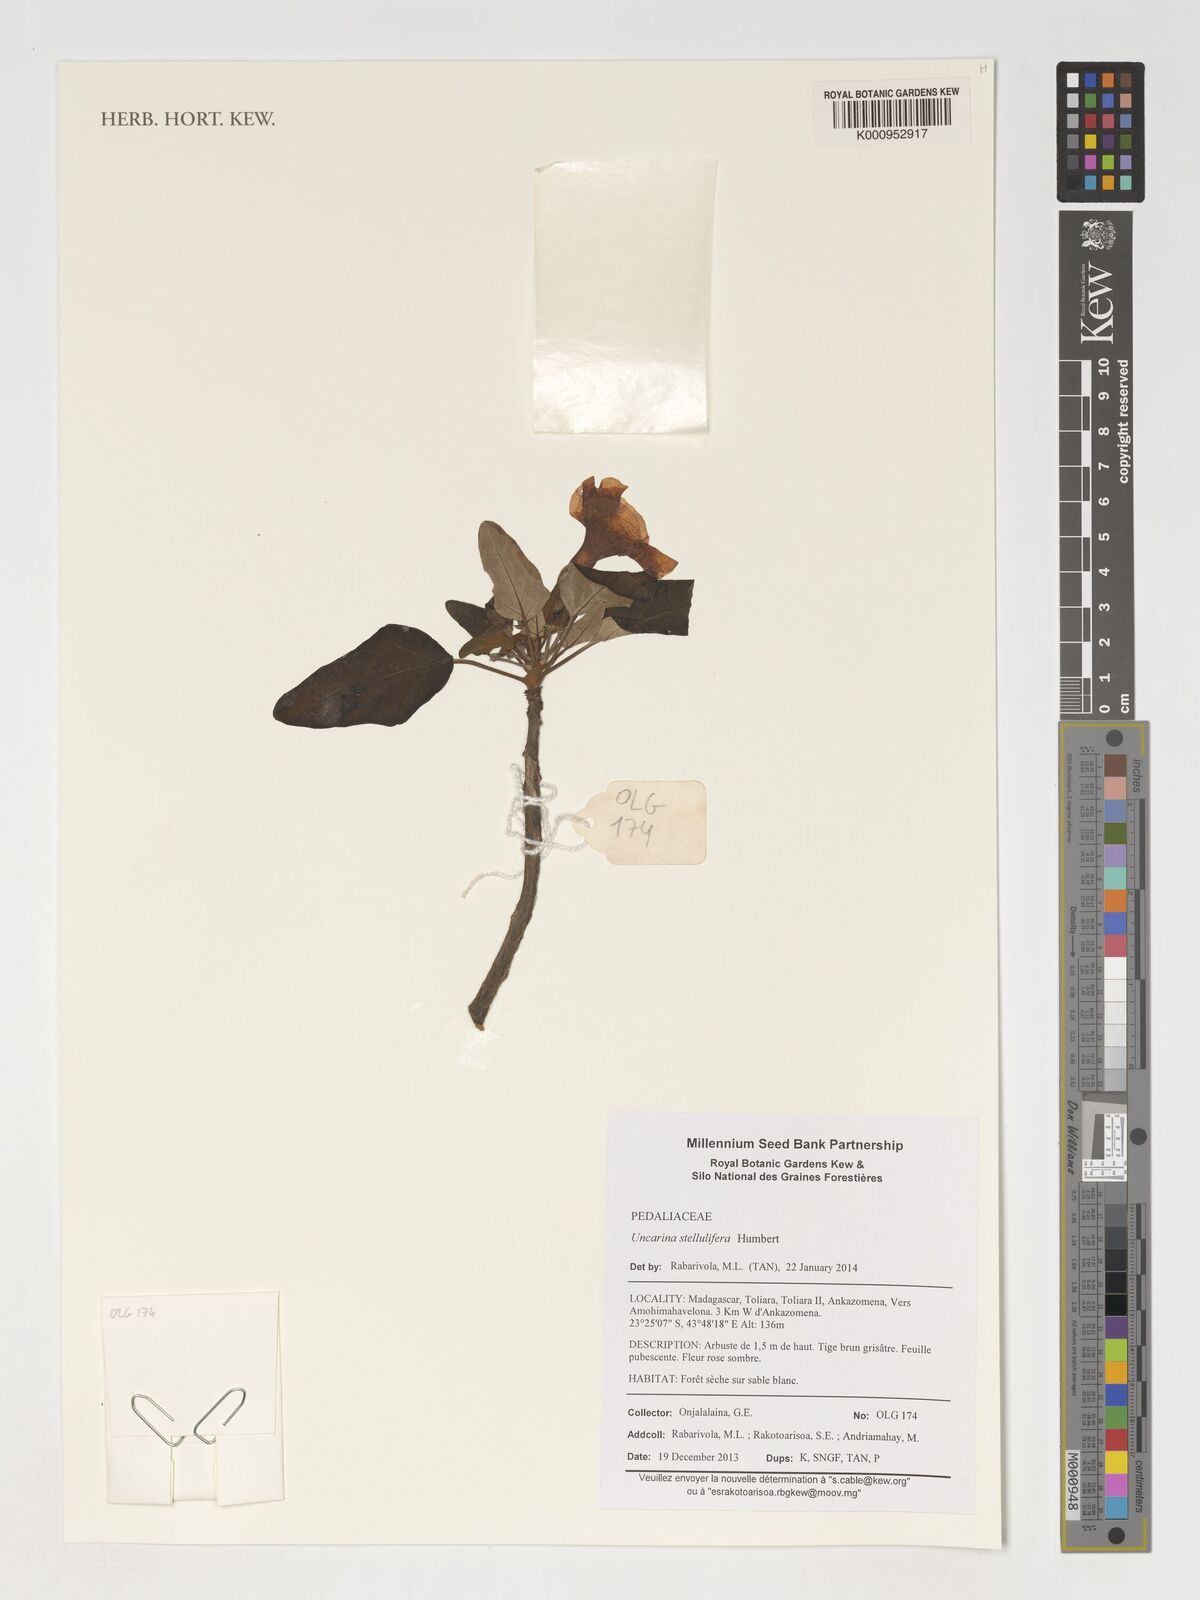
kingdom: Plantae
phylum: Tracheophyta
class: Magnoliopsida
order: Lamiales
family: Pedaliaceae
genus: Uncarina
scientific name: Uncarina stellulifera
